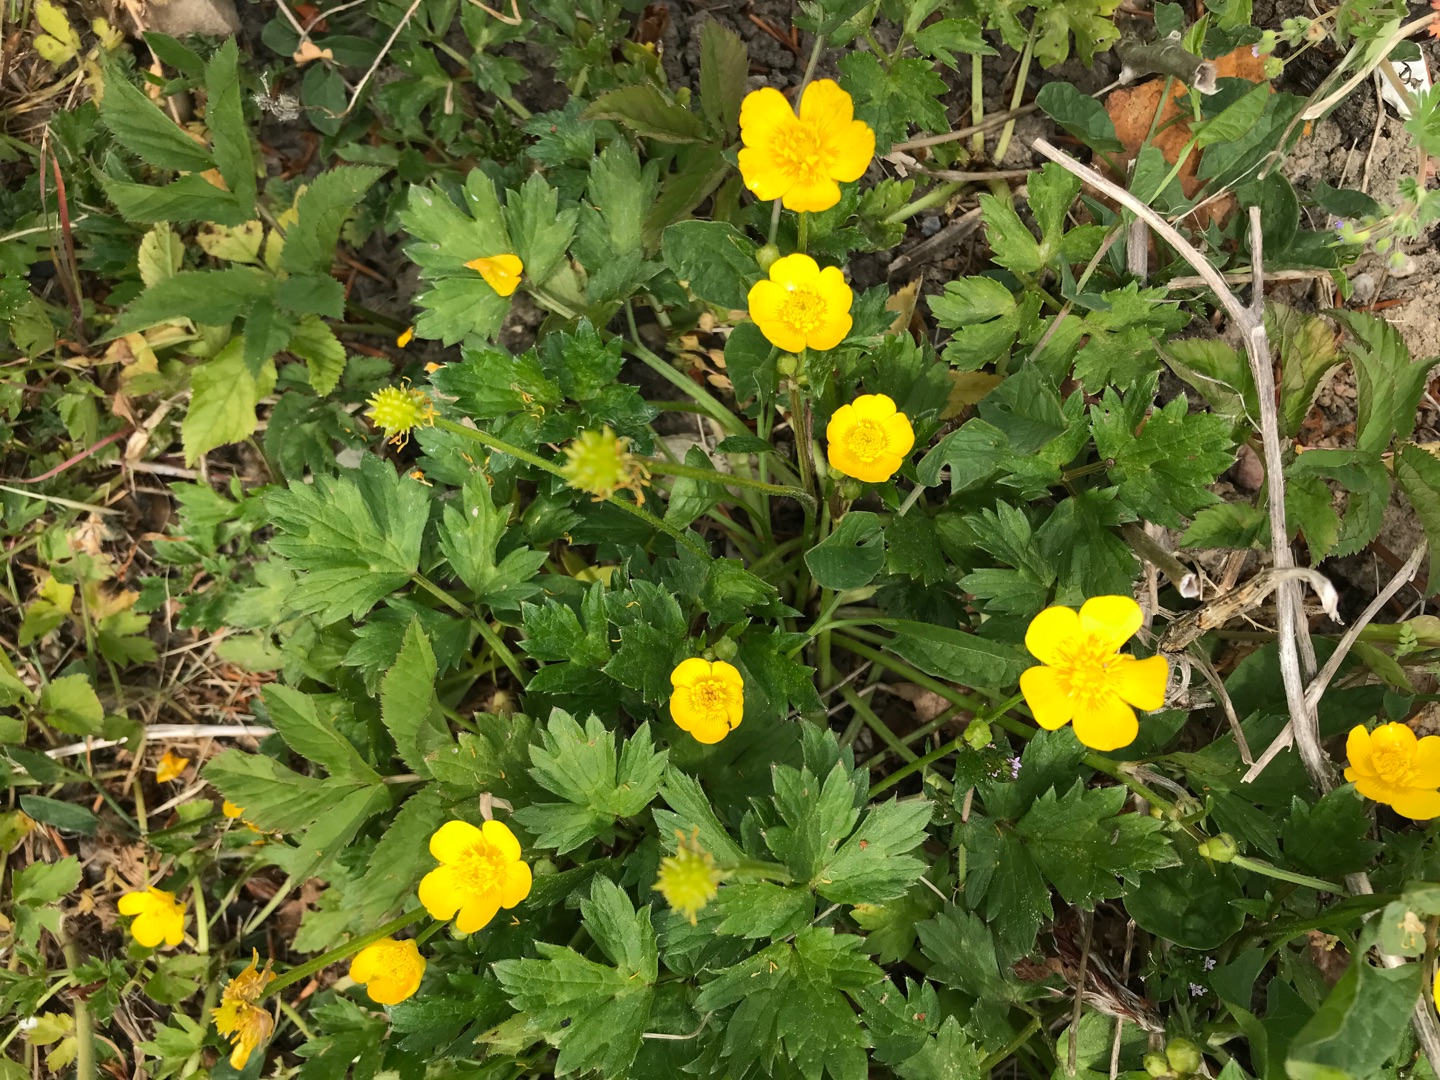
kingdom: Plantae
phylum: Tracheophyta
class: Magnoliopsida
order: Ranunculales
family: Ranunculaceae
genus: Ranunculus
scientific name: Ranunculus repens
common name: Lav ranunkel
